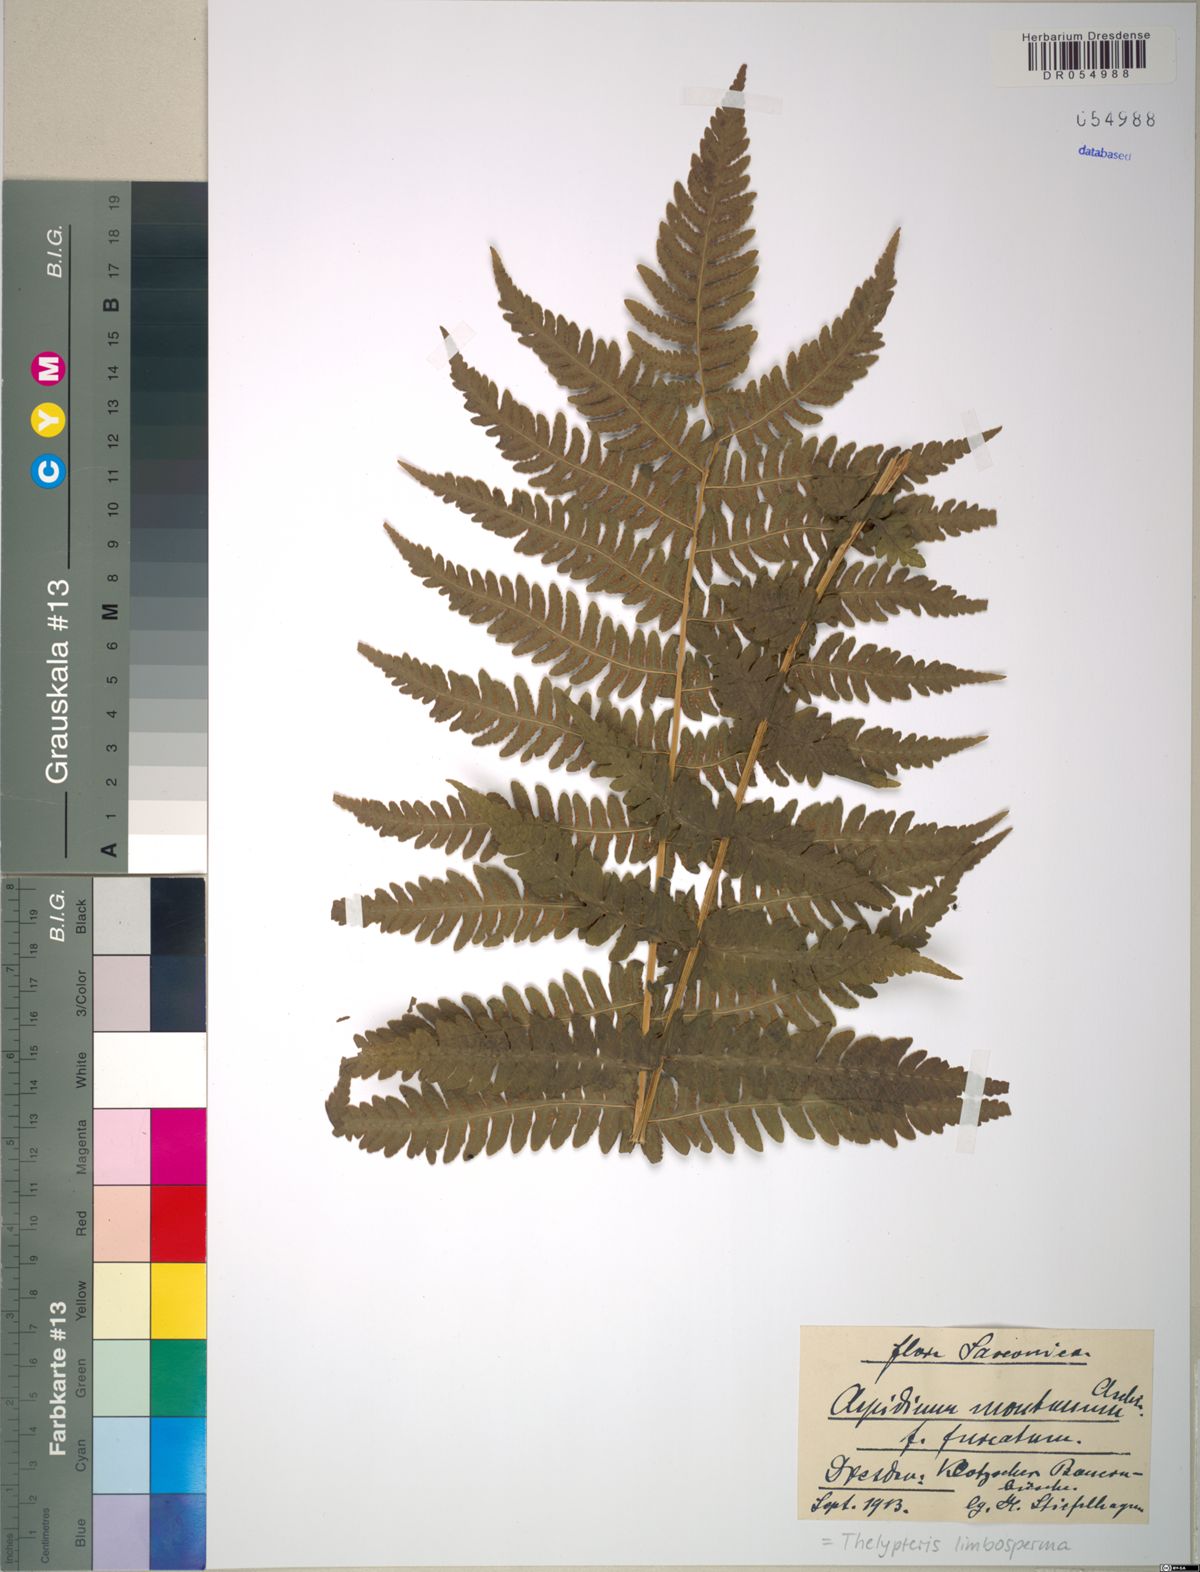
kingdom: Plantae
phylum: Tracheophyta
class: Polypodiopsida
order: Polypodiales
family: Thelypteridaceae
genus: Oreopteris
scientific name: Oreopteris limbosperma
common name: Lemon-scented fern
